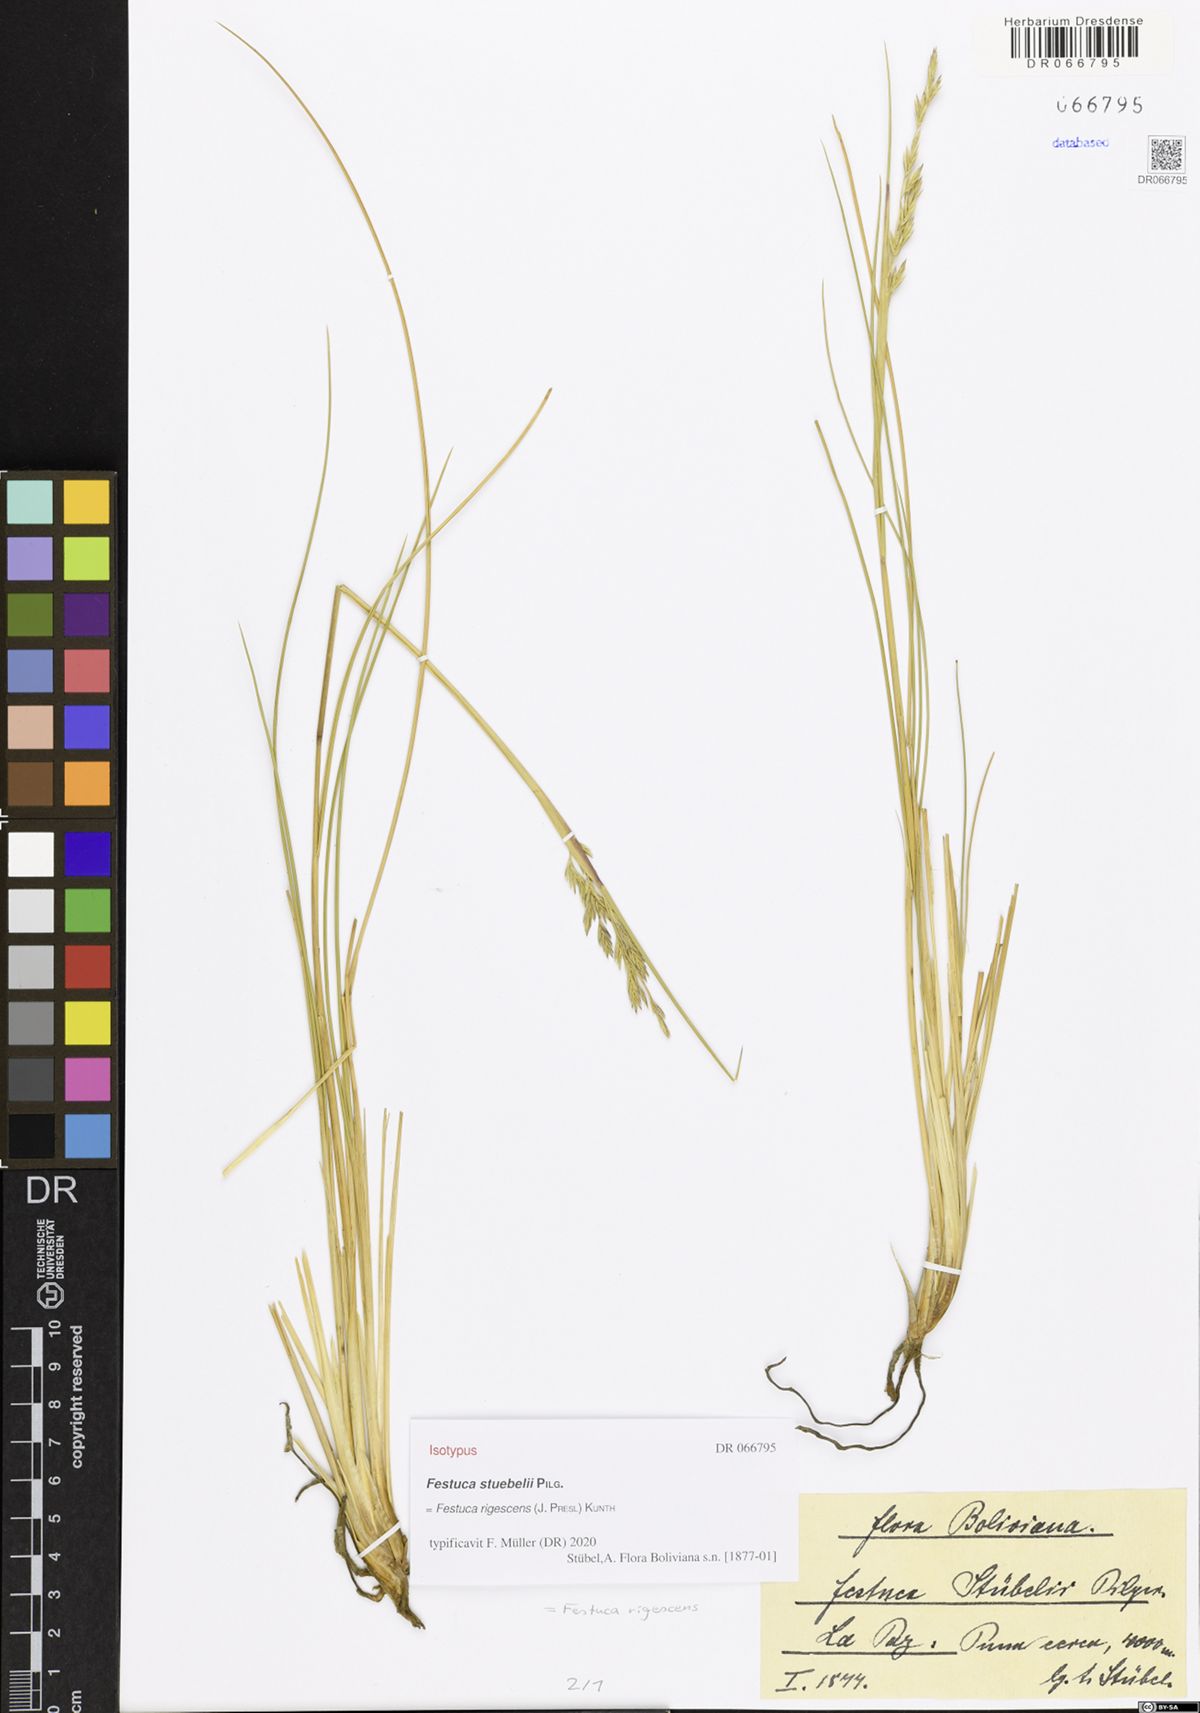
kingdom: Plantae
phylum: Tracheophyta
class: Liliopsida
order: Poales
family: Poaceae
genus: Festuca
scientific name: Festuca rigescens
